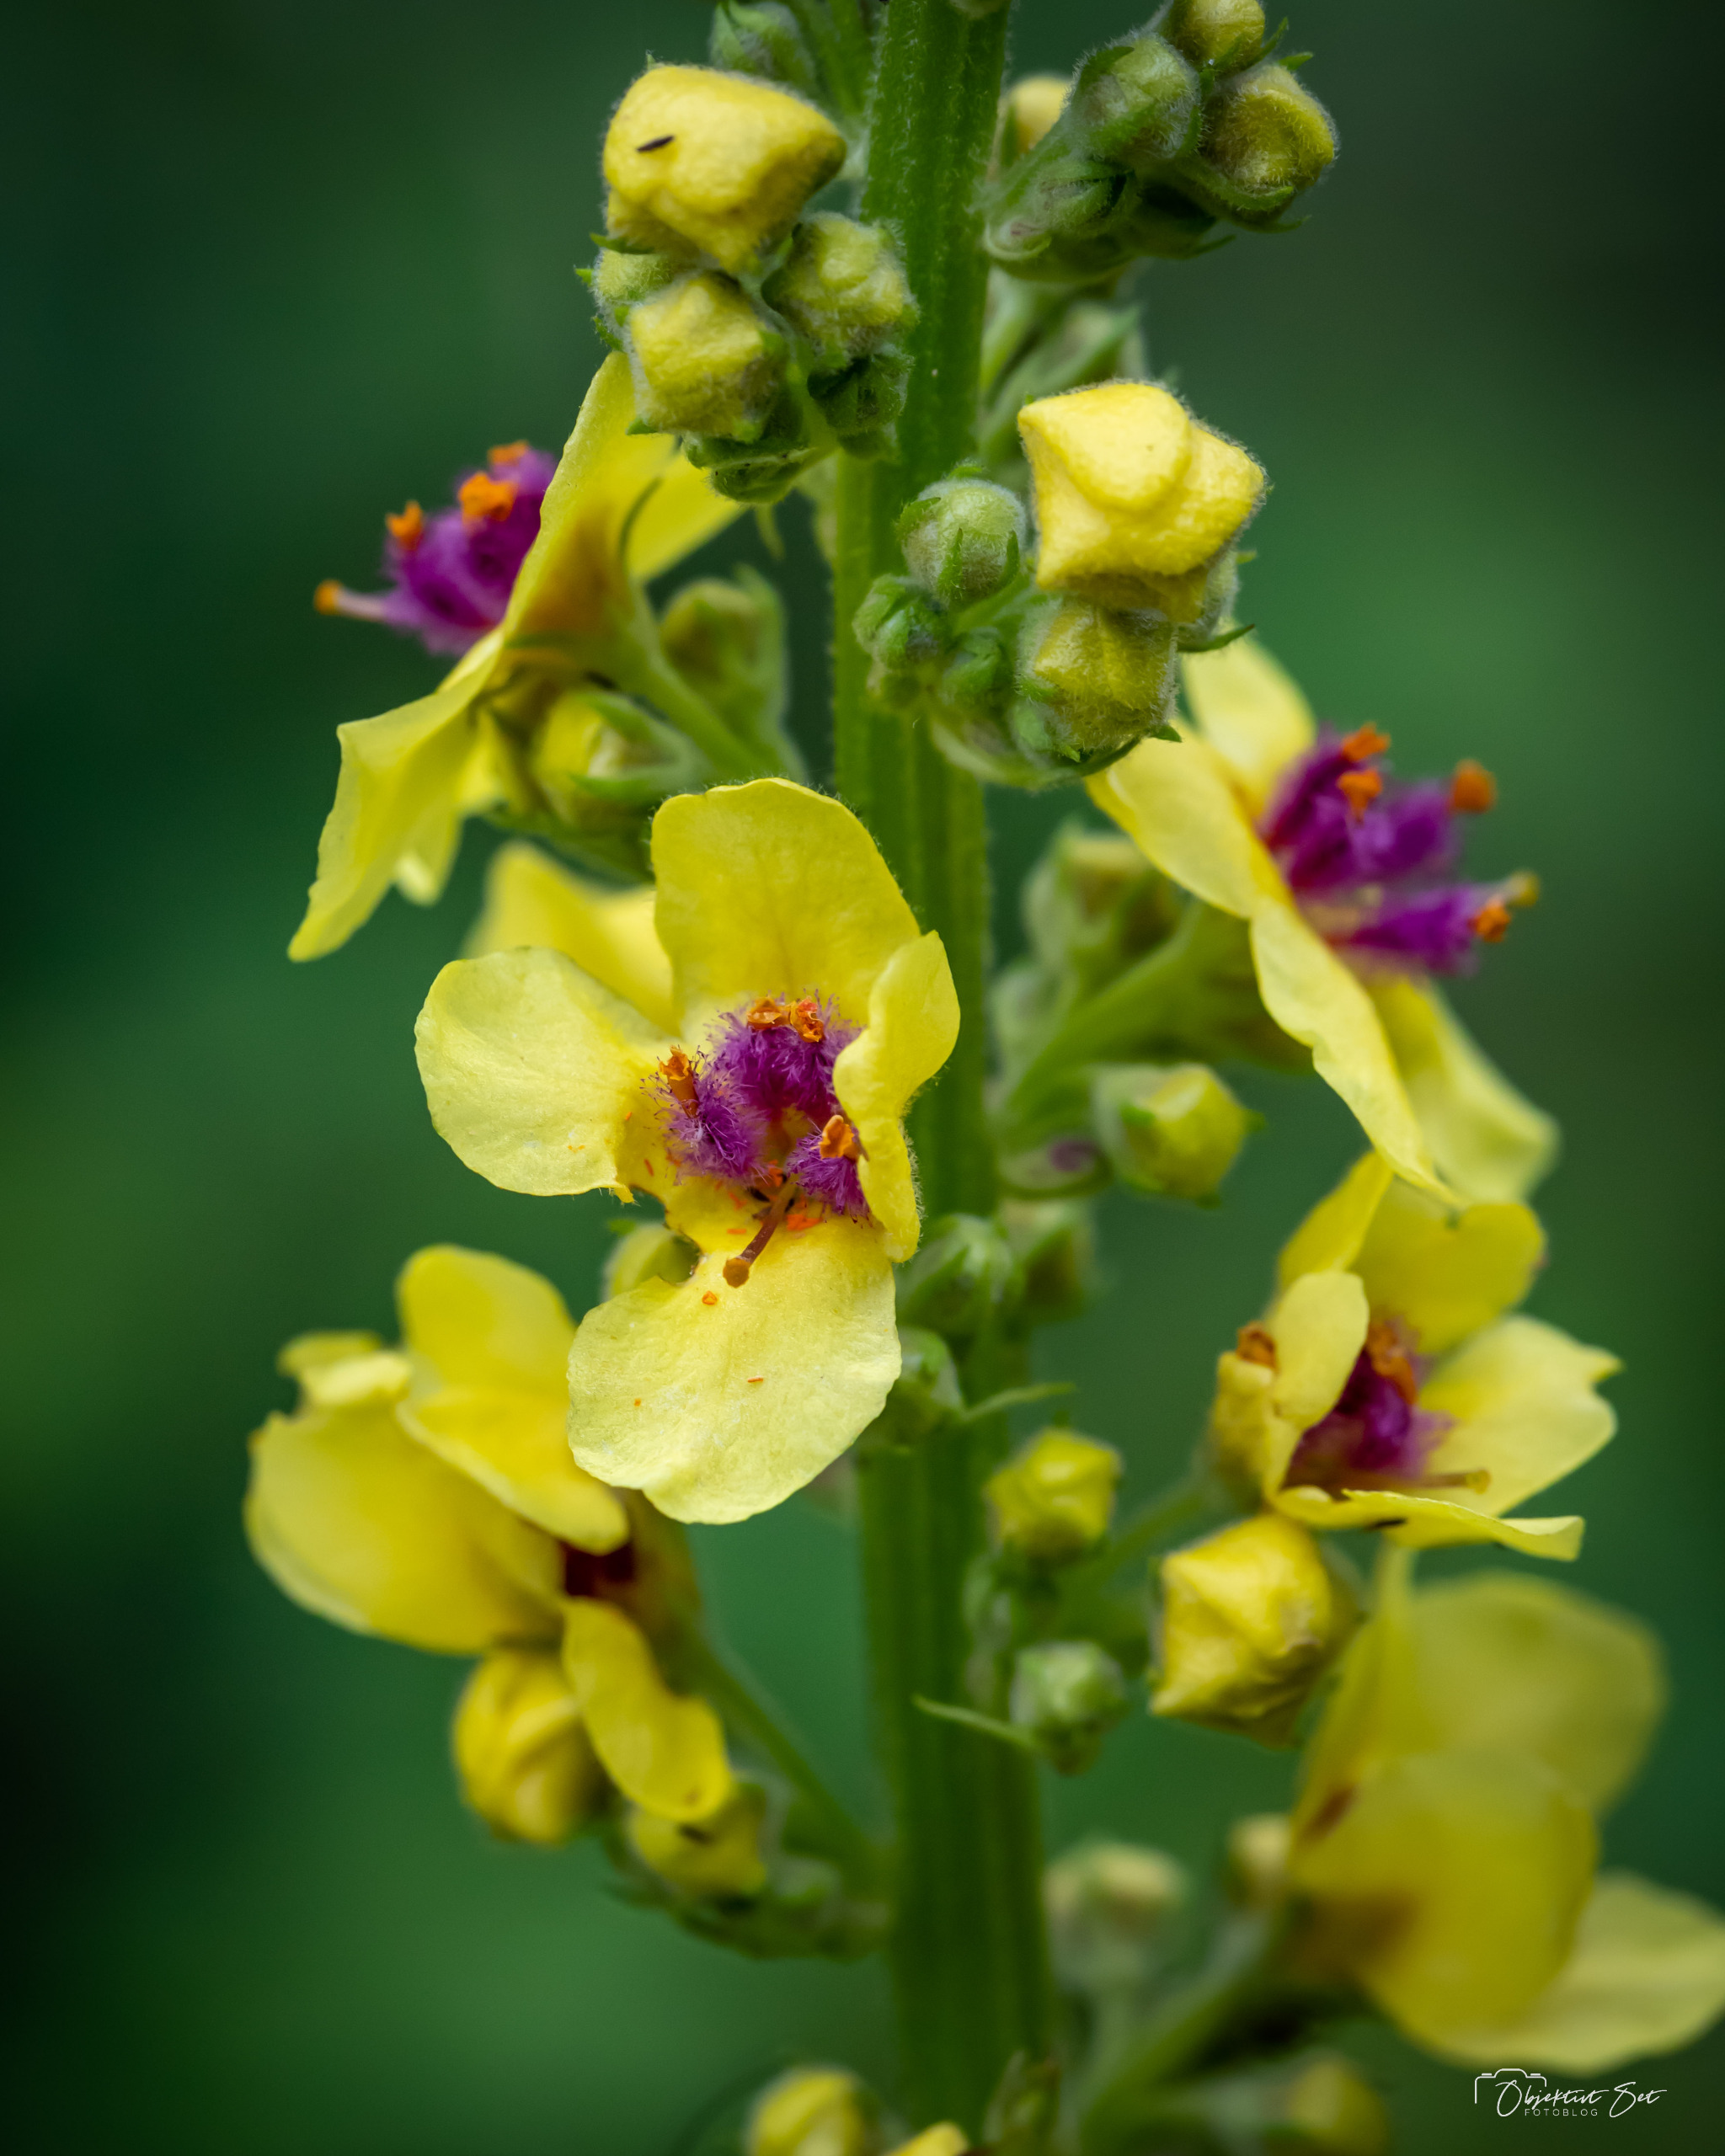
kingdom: Plantae
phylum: Tracheophyta
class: Magnoliopsida
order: Lamiales
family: Scrophulariaceae
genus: Verbascum
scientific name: Verbascum nigrum
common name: Mørk kongelys
